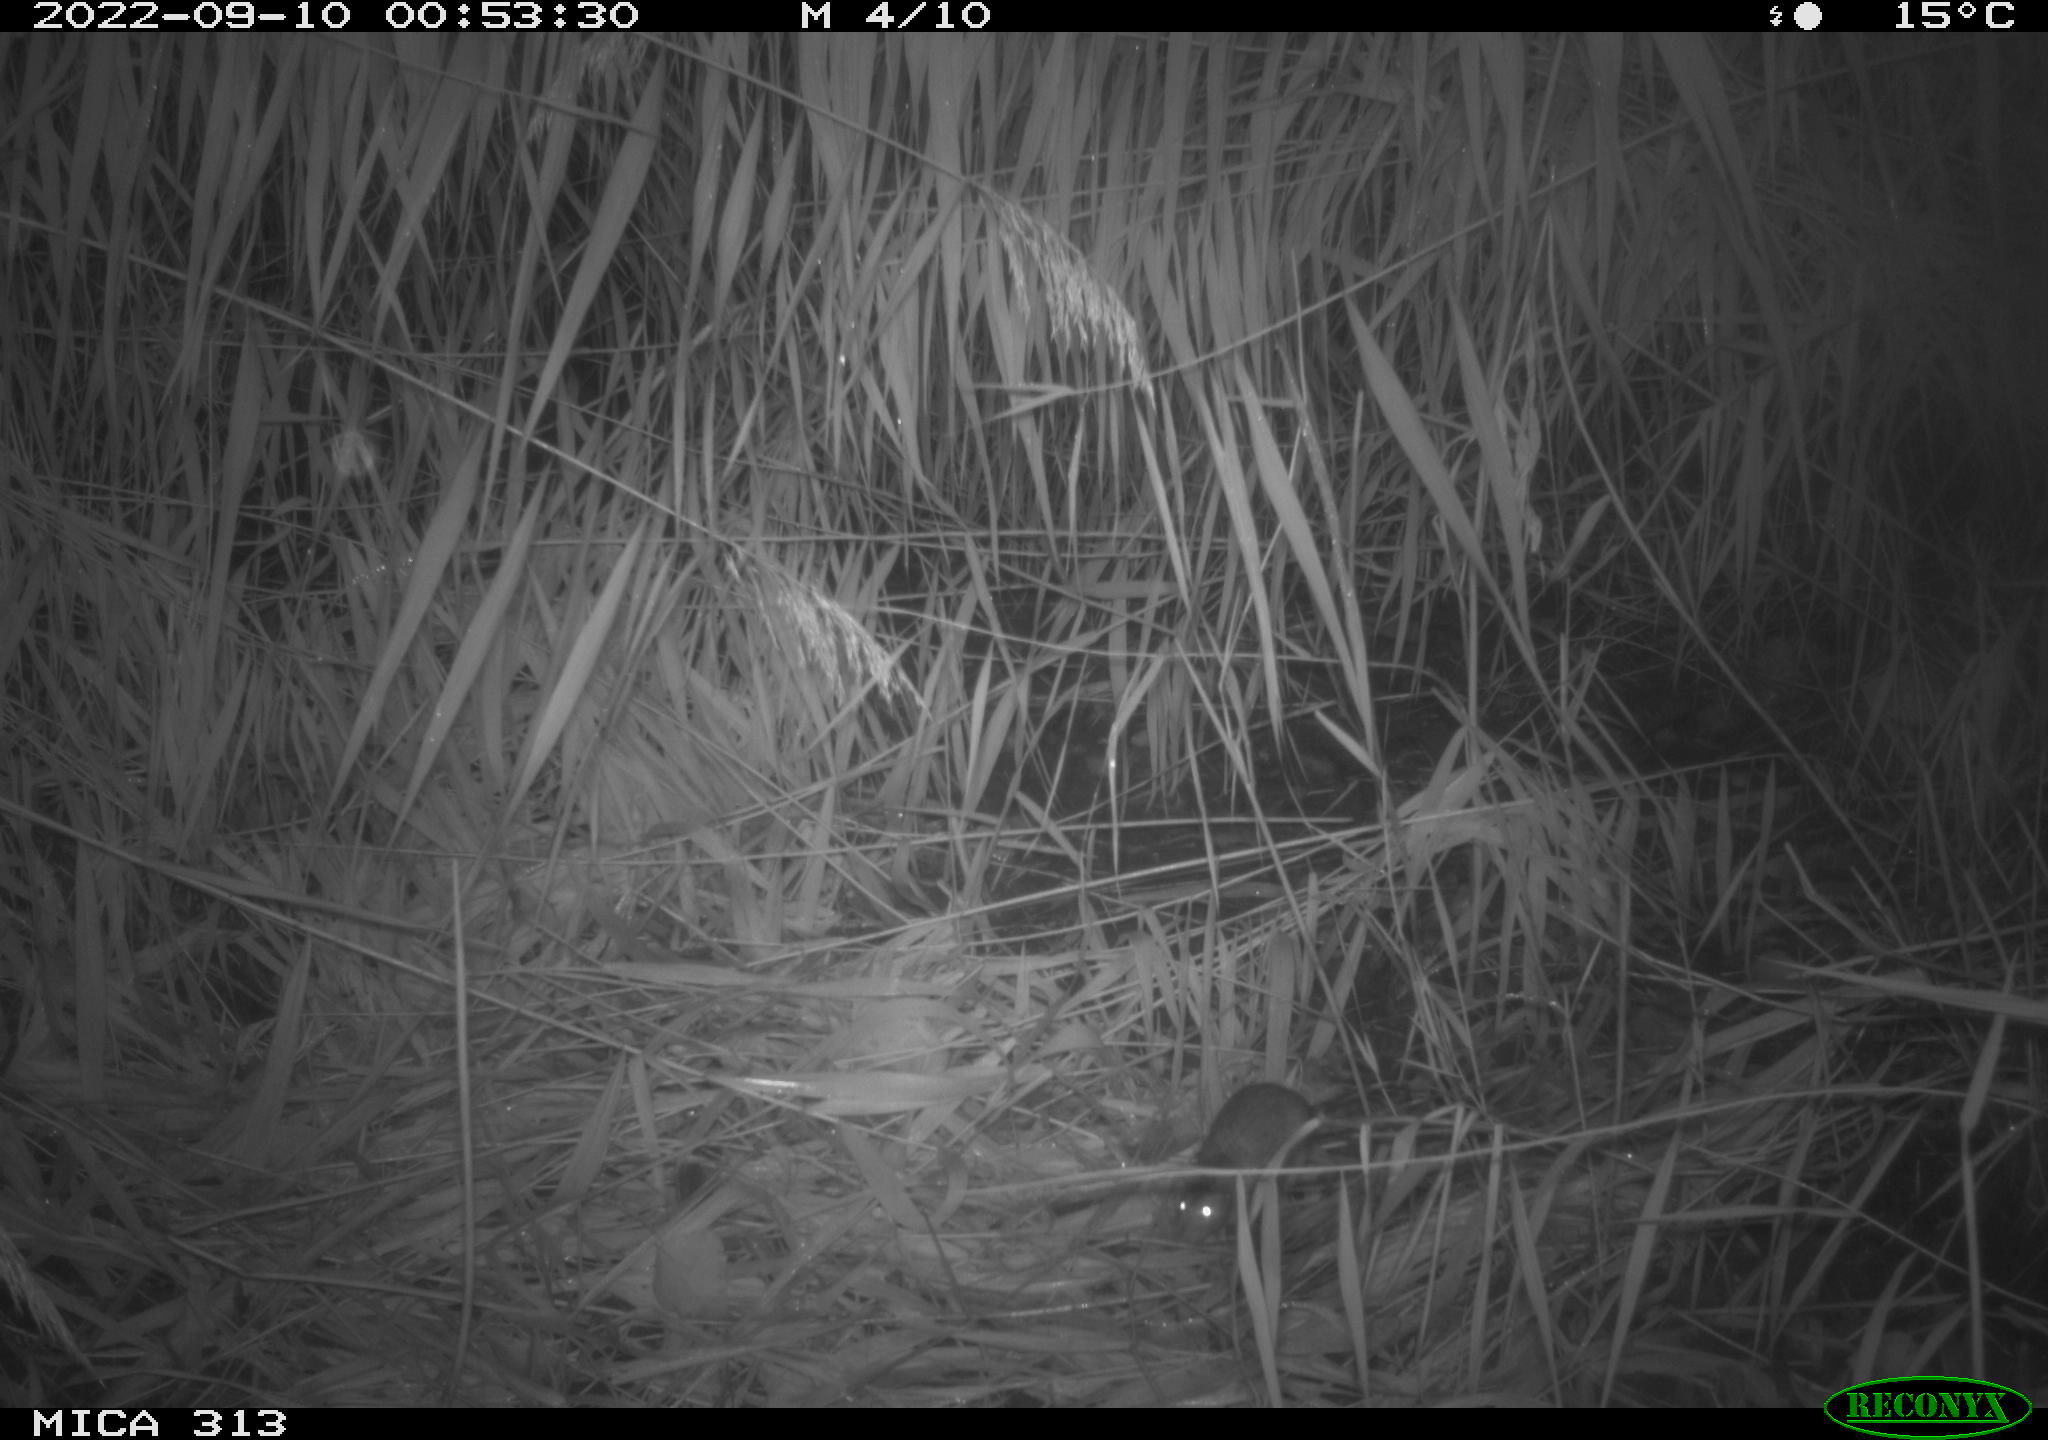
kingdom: Animalia
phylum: Chordata
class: Mammalia
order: Rodentia
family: Muridae
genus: Rattus
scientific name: Rattus norvegicus
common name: Brown rat
